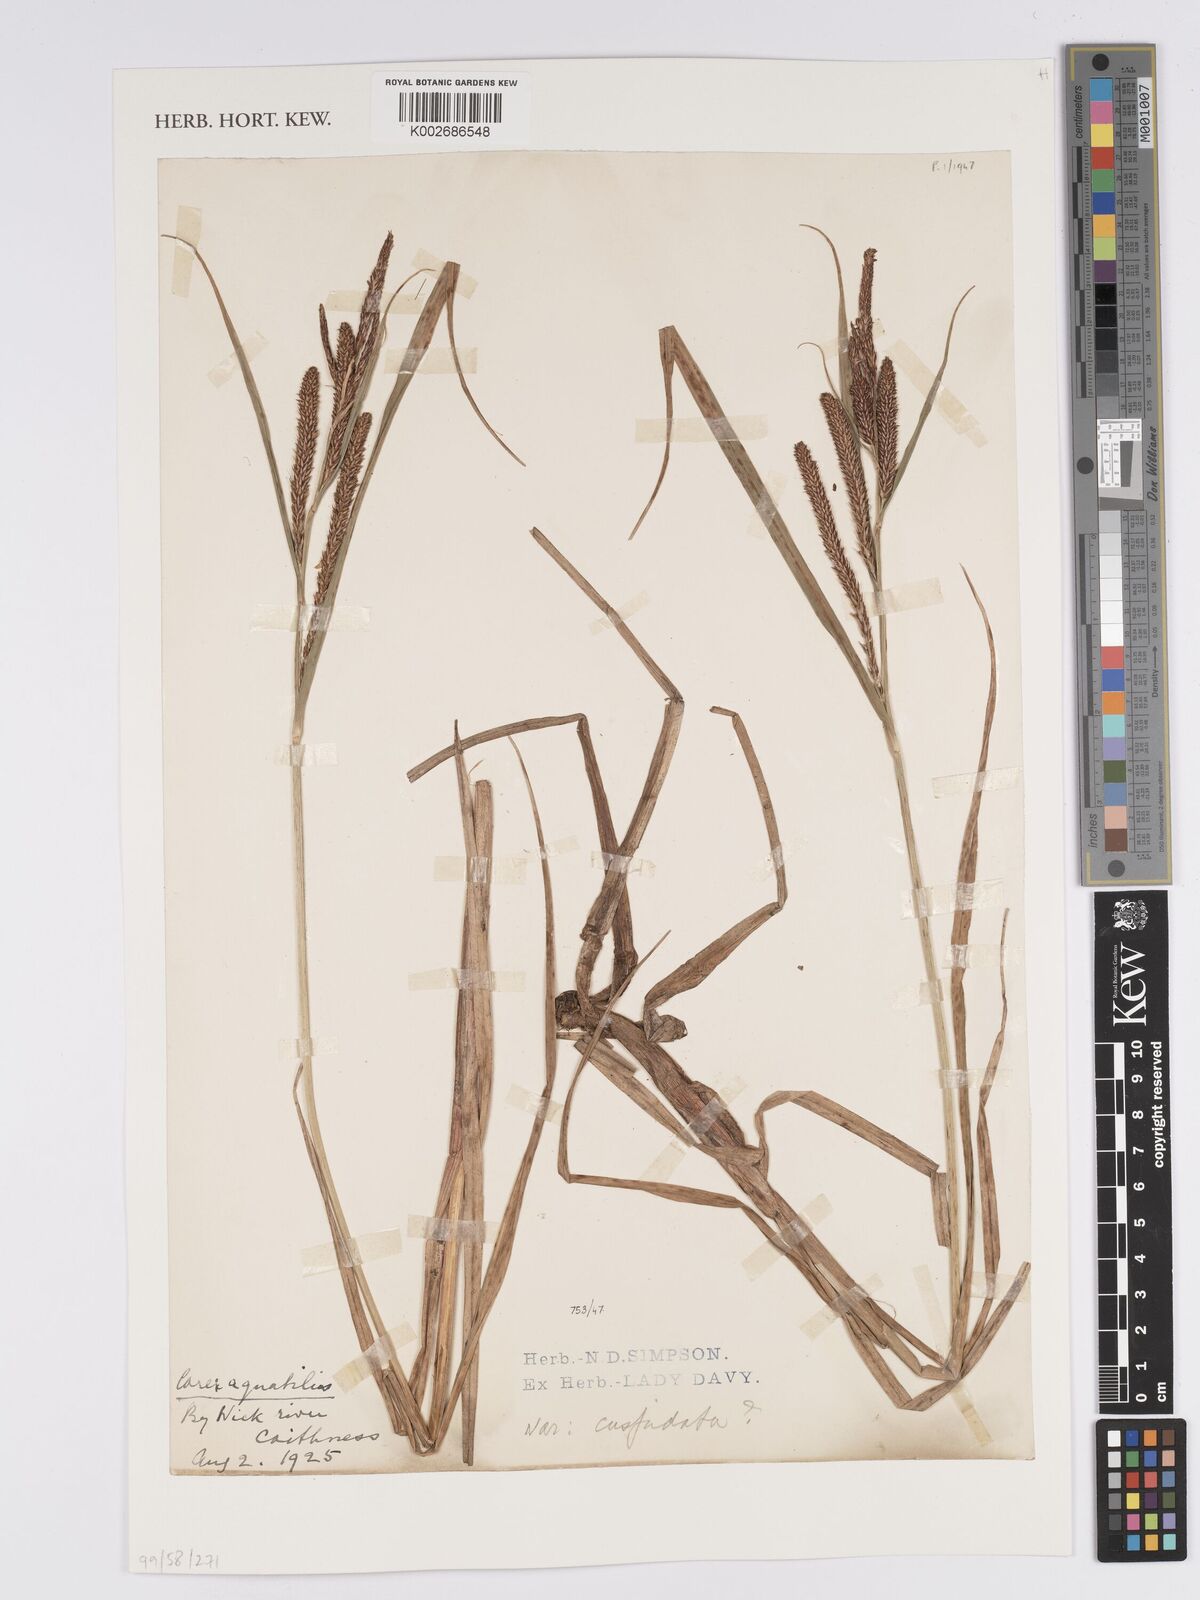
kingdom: Plantae
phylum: Tracheophyta
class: Liliopsida
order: Poales
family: Cyperaceae
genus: Carex
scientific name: Carex aquatilis
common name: Water sedge
